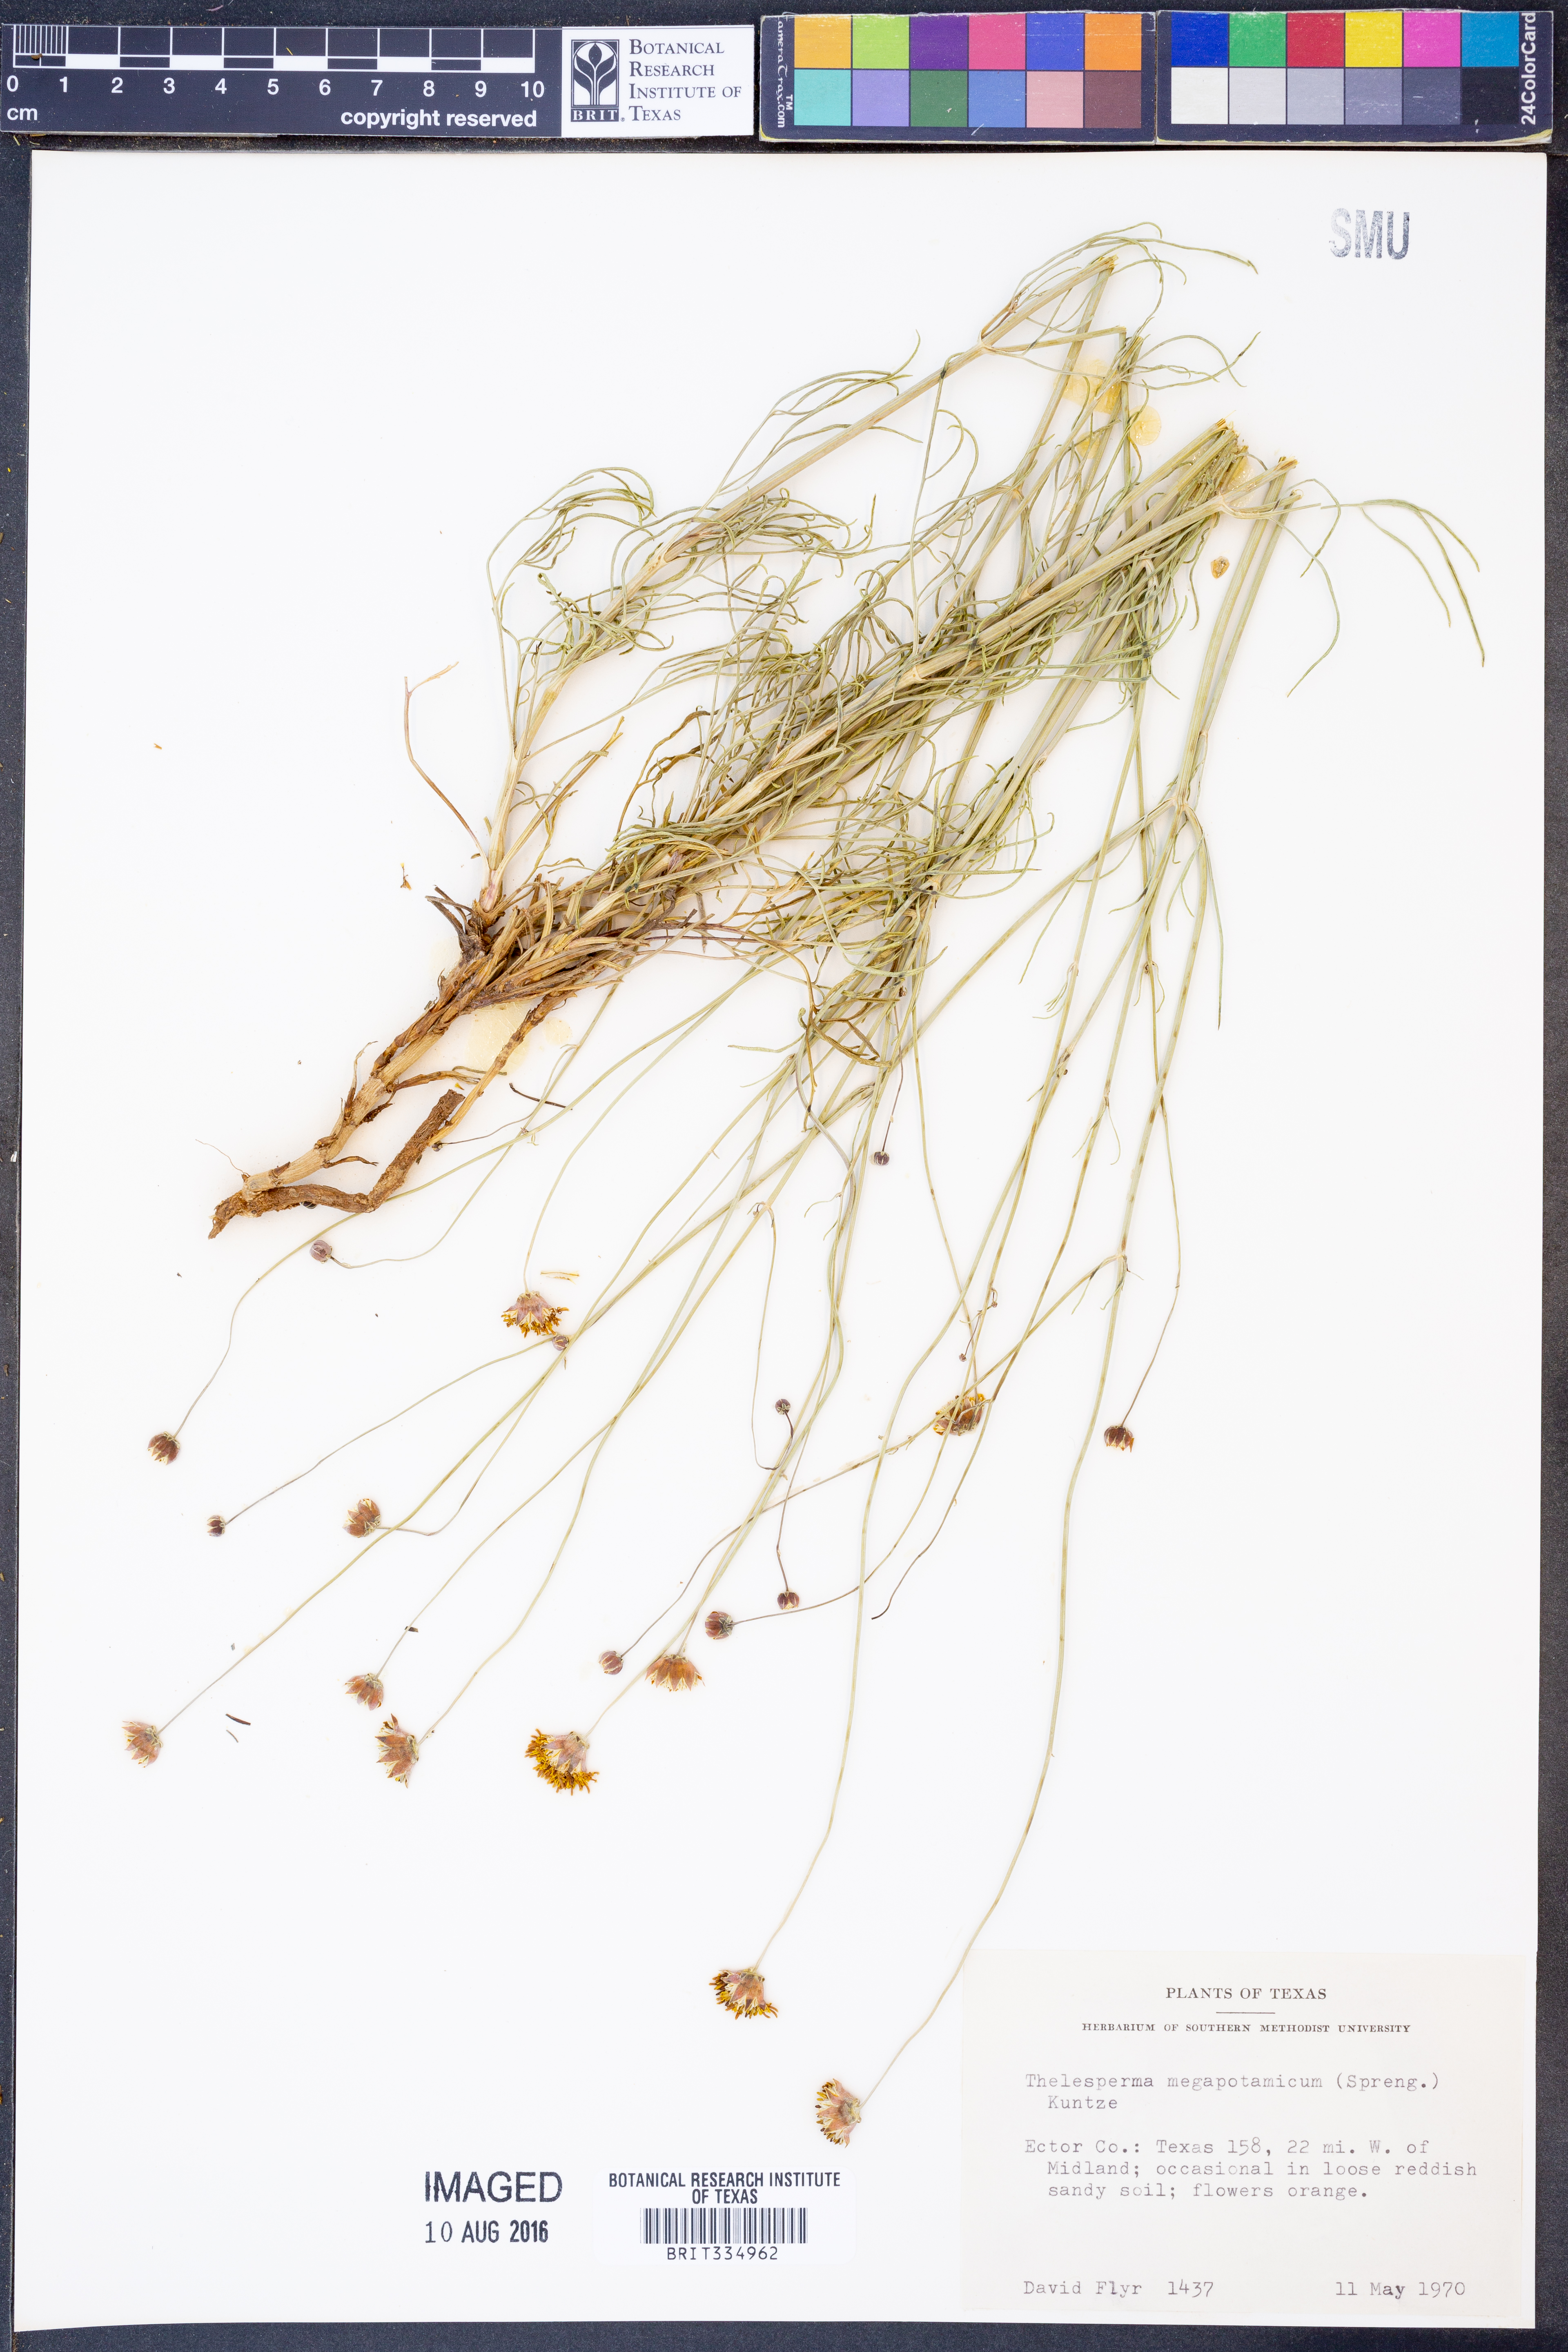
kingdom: Plantae
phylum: Tracheophyta
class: Magnoliopsida
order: Asterales
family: Asteraceae
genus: Thelesperma
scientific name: Thelesperma megapotamicum
